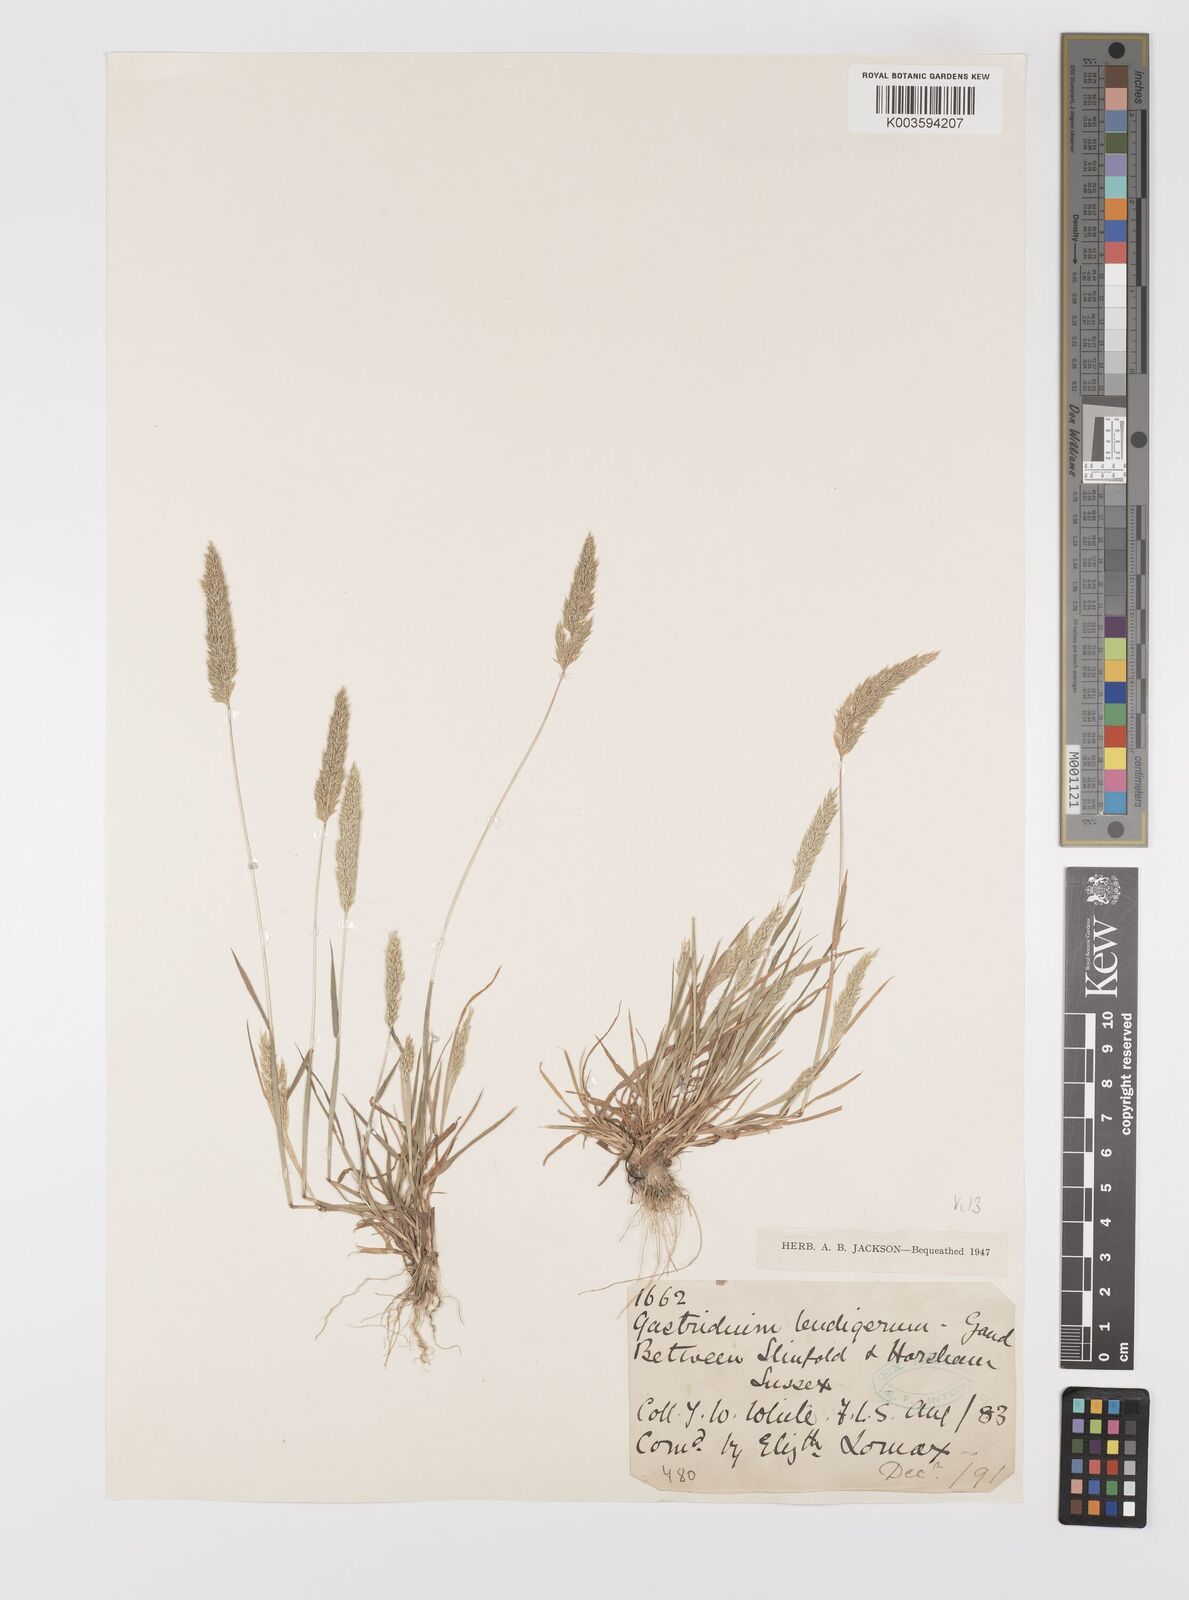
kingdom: Plantae
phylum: Tracheophyta
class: Liliopsida
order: Poales
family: Poaceae
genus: Gastridium
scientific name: Gastridium ventricosum
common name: Nit-grass
